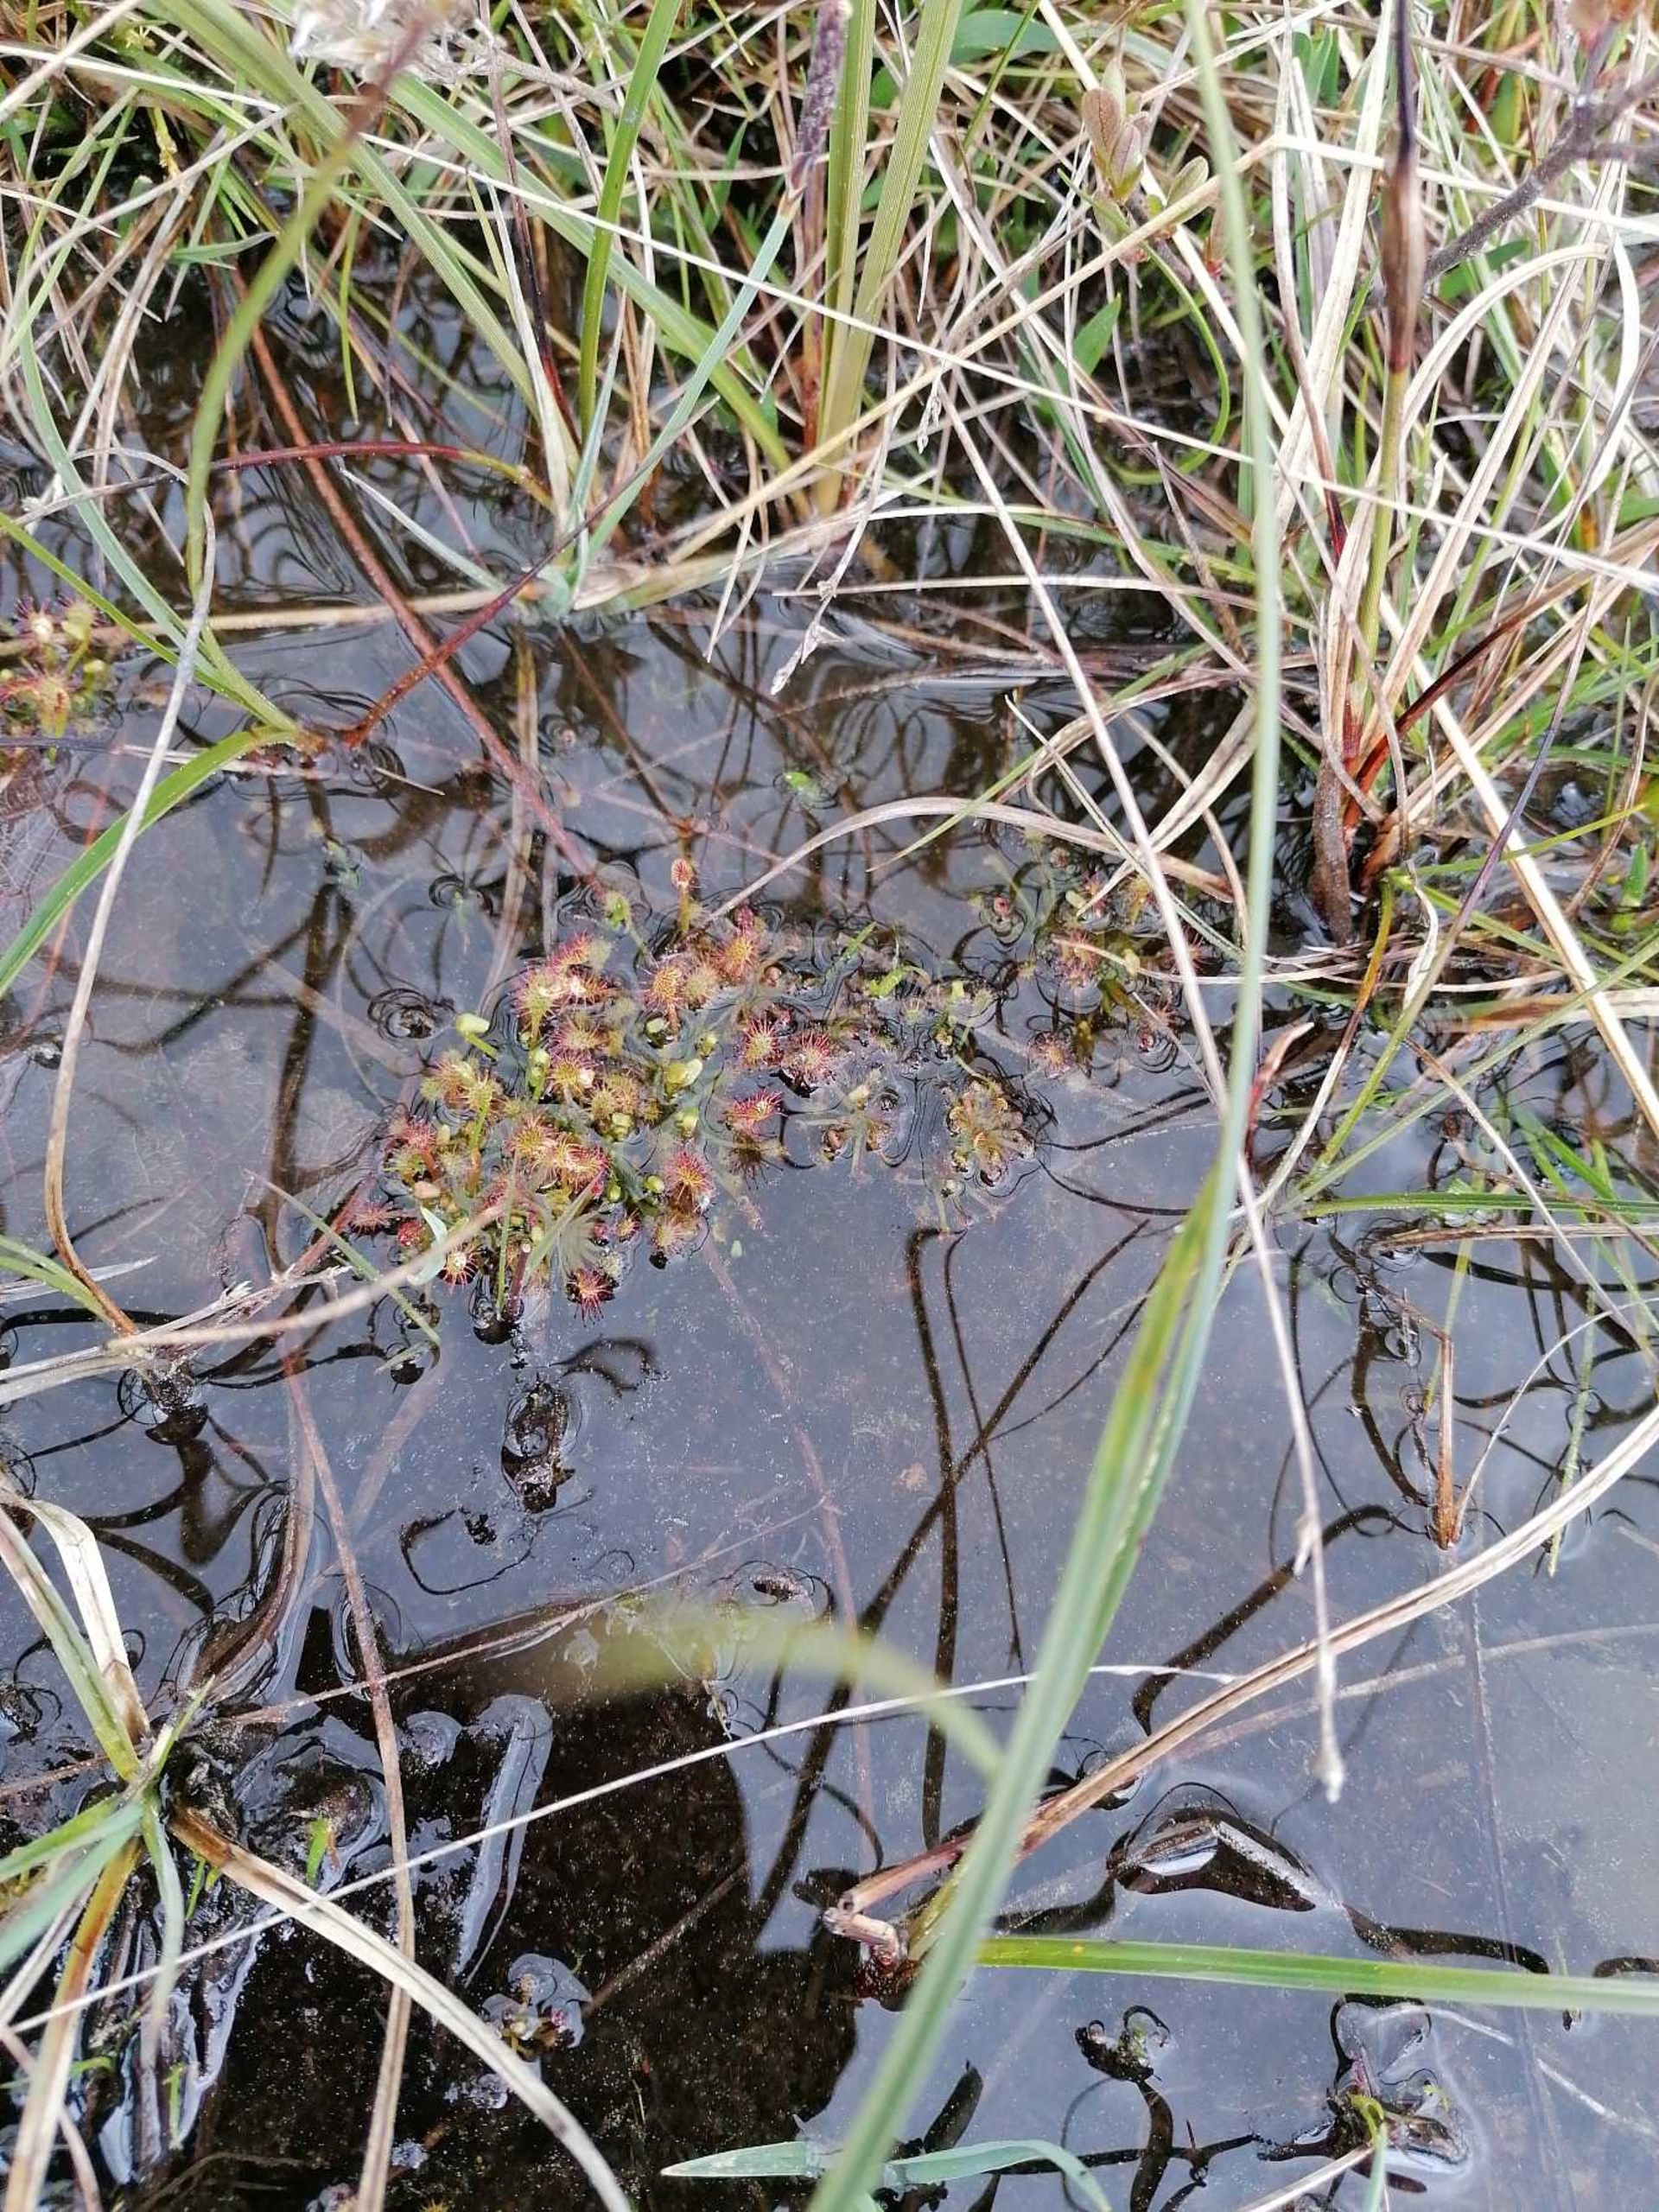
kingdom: Plantae
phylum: Tracheophyta
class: Magnoliopsida
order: Caryophyllales
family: Droseraceae
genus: Drosera
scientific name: Drosera rotundifolia
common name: Rundbladet soldug
